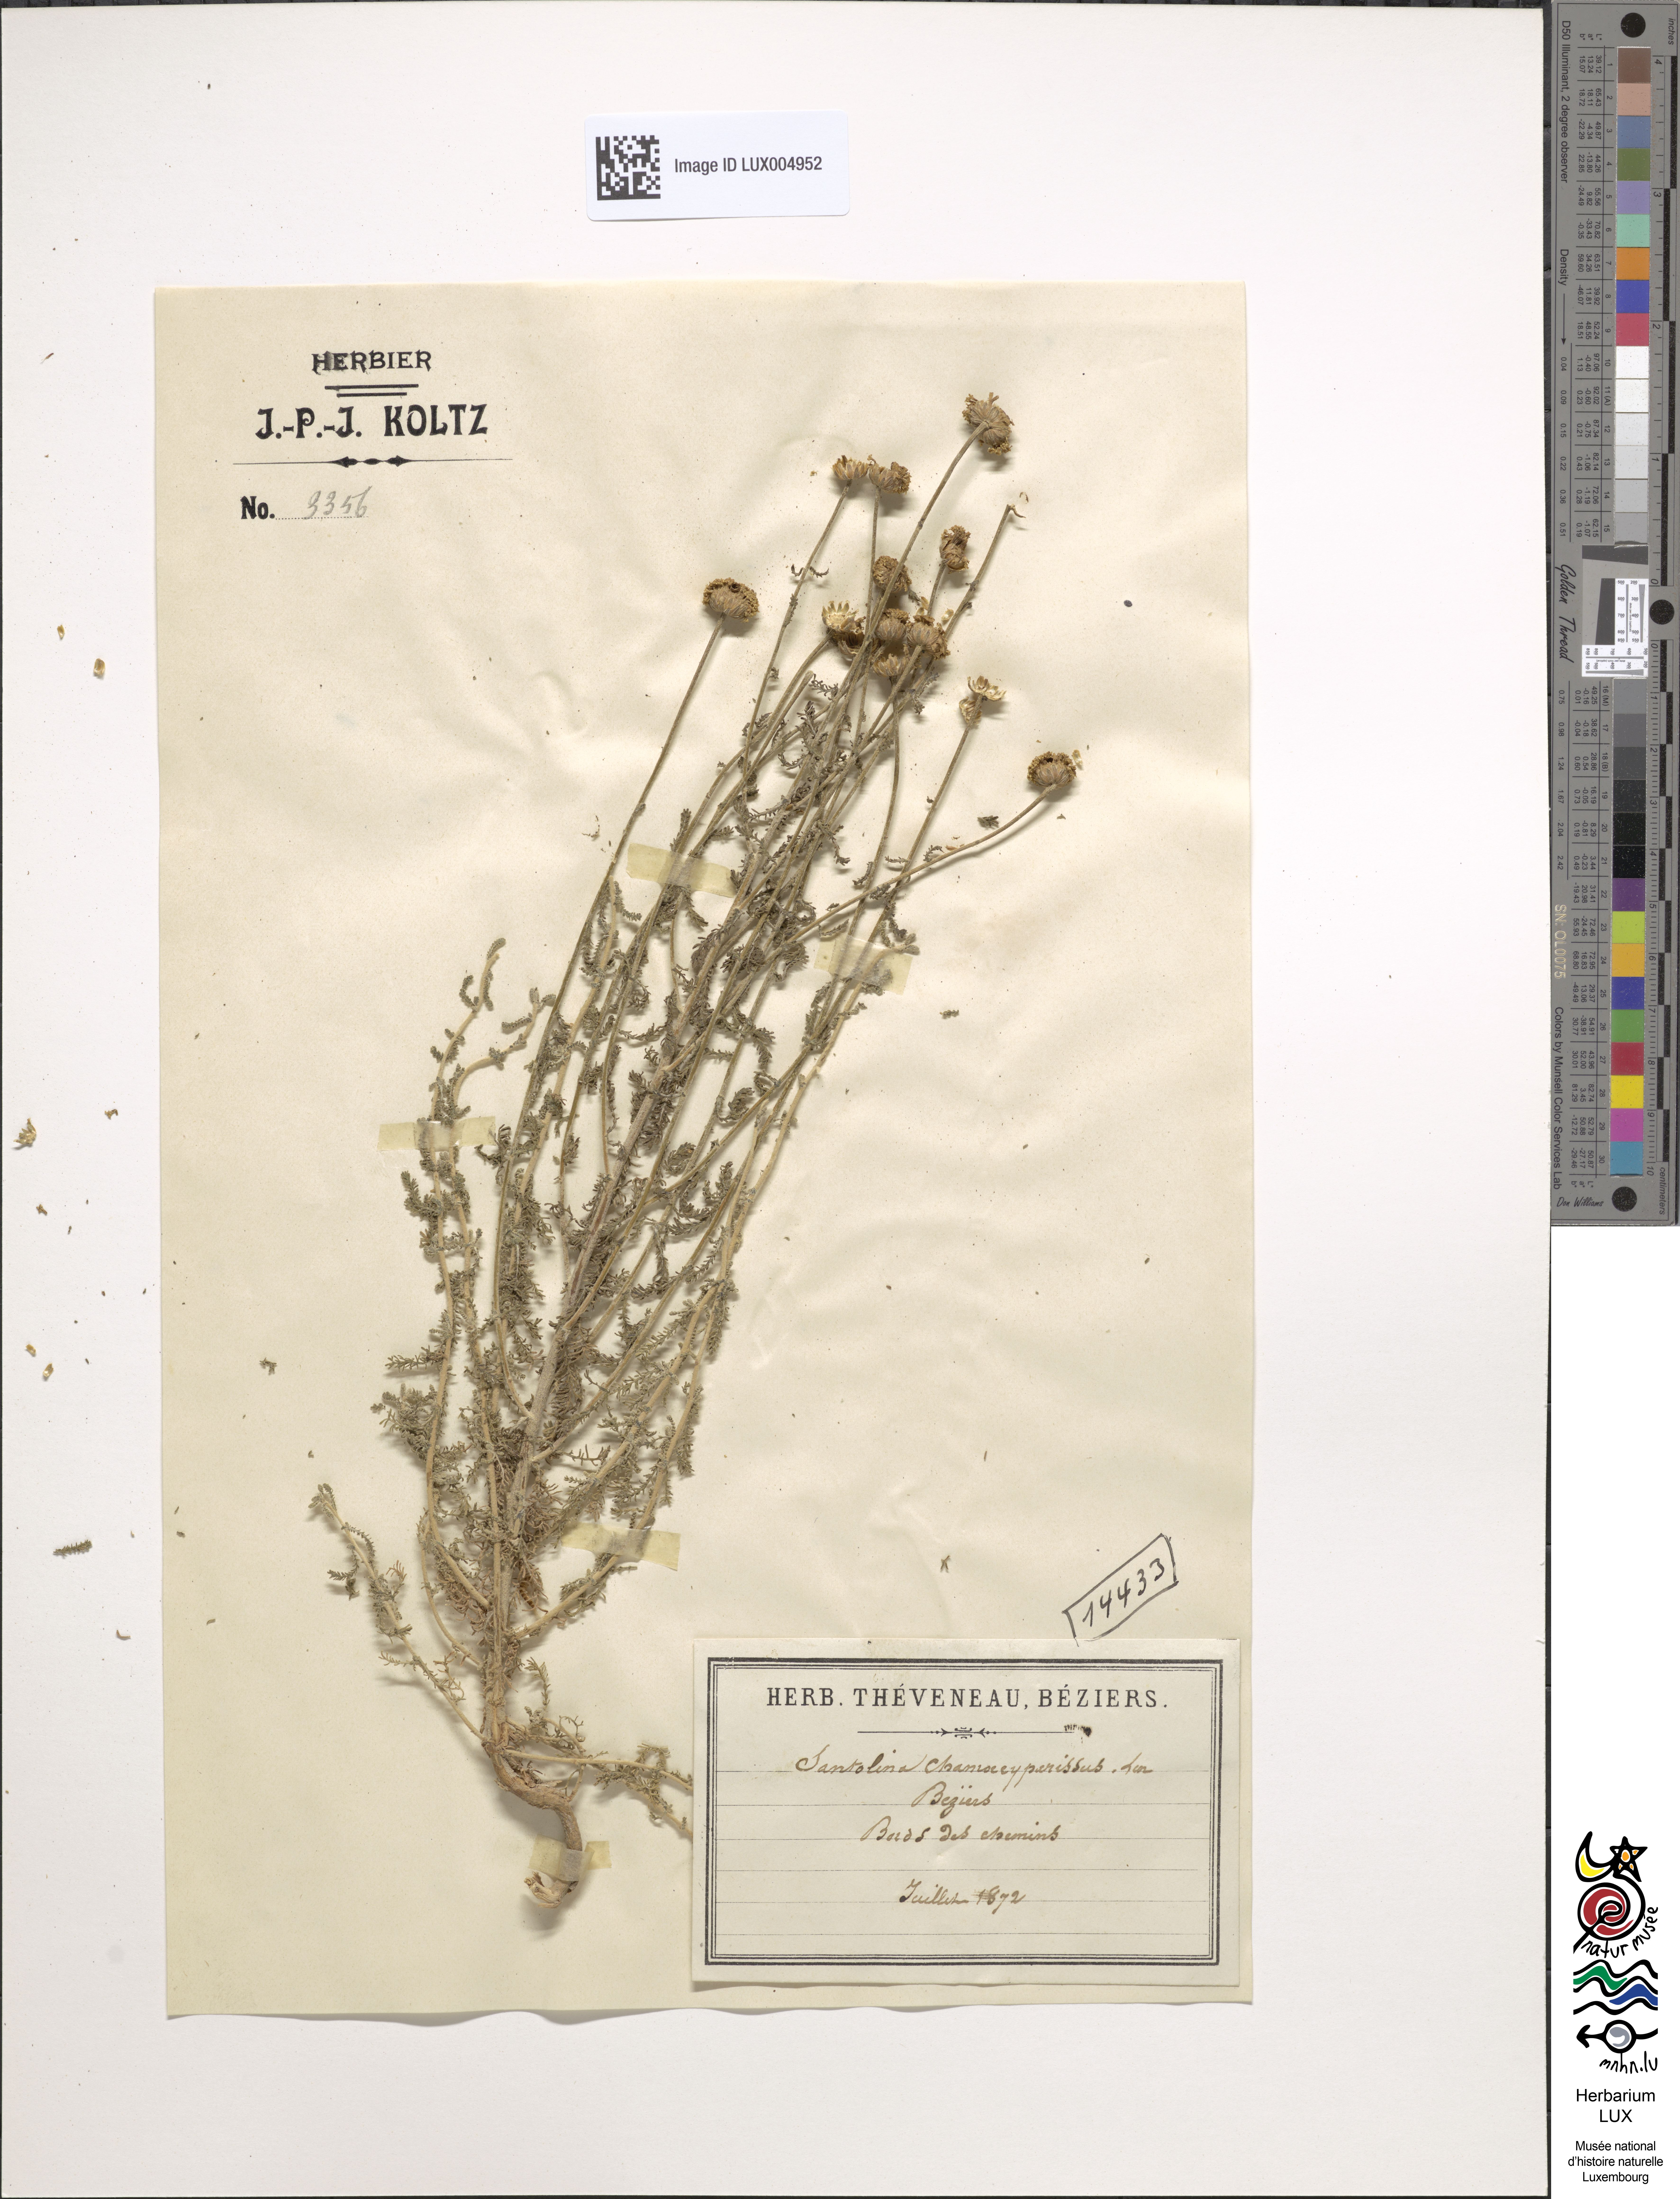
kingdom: Plantae
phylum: Tracheophyta
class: Magnoliopsida
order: Asterales
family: Asteraceae
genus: Santolina
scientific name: Santolina chamaecyparissus
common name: Lavender-cotton
